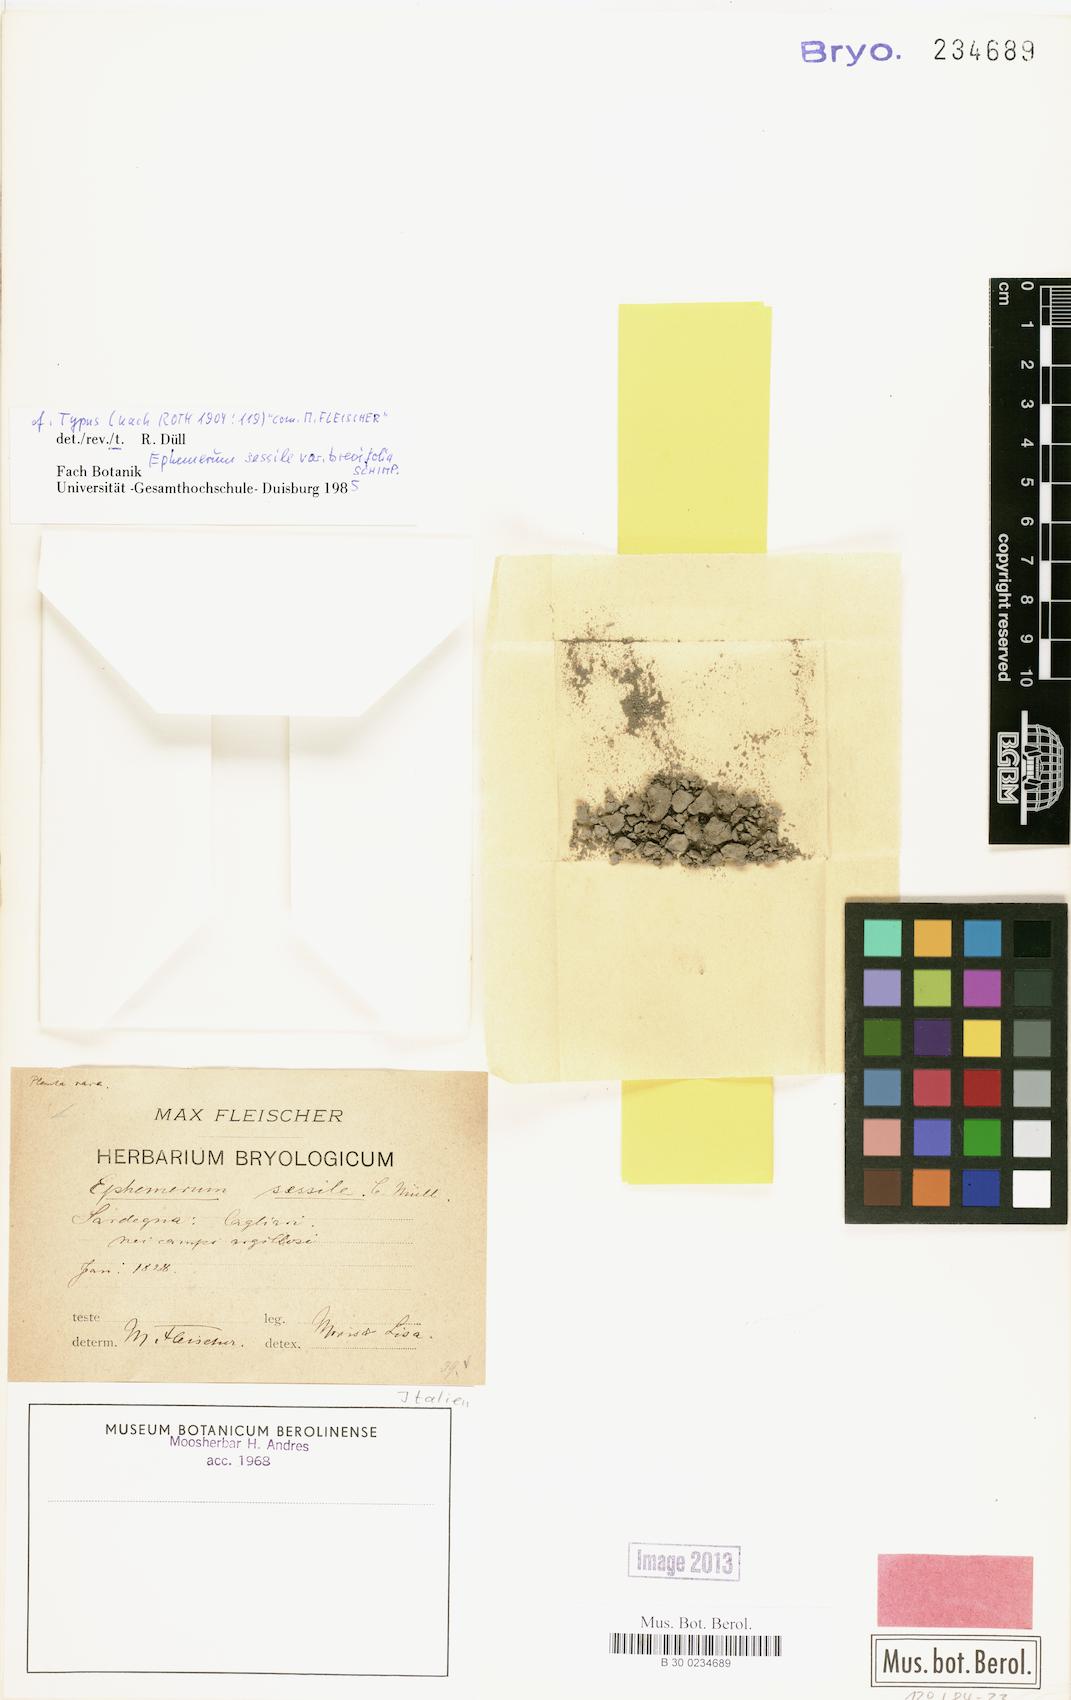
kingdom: Plantae
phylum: Bryophyta
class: Bryopsida
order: Pottiales
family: Ephemeraceae
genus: Ephemerum
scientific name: Ephemerum crassinervium
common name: Thick-nerved earth moss
